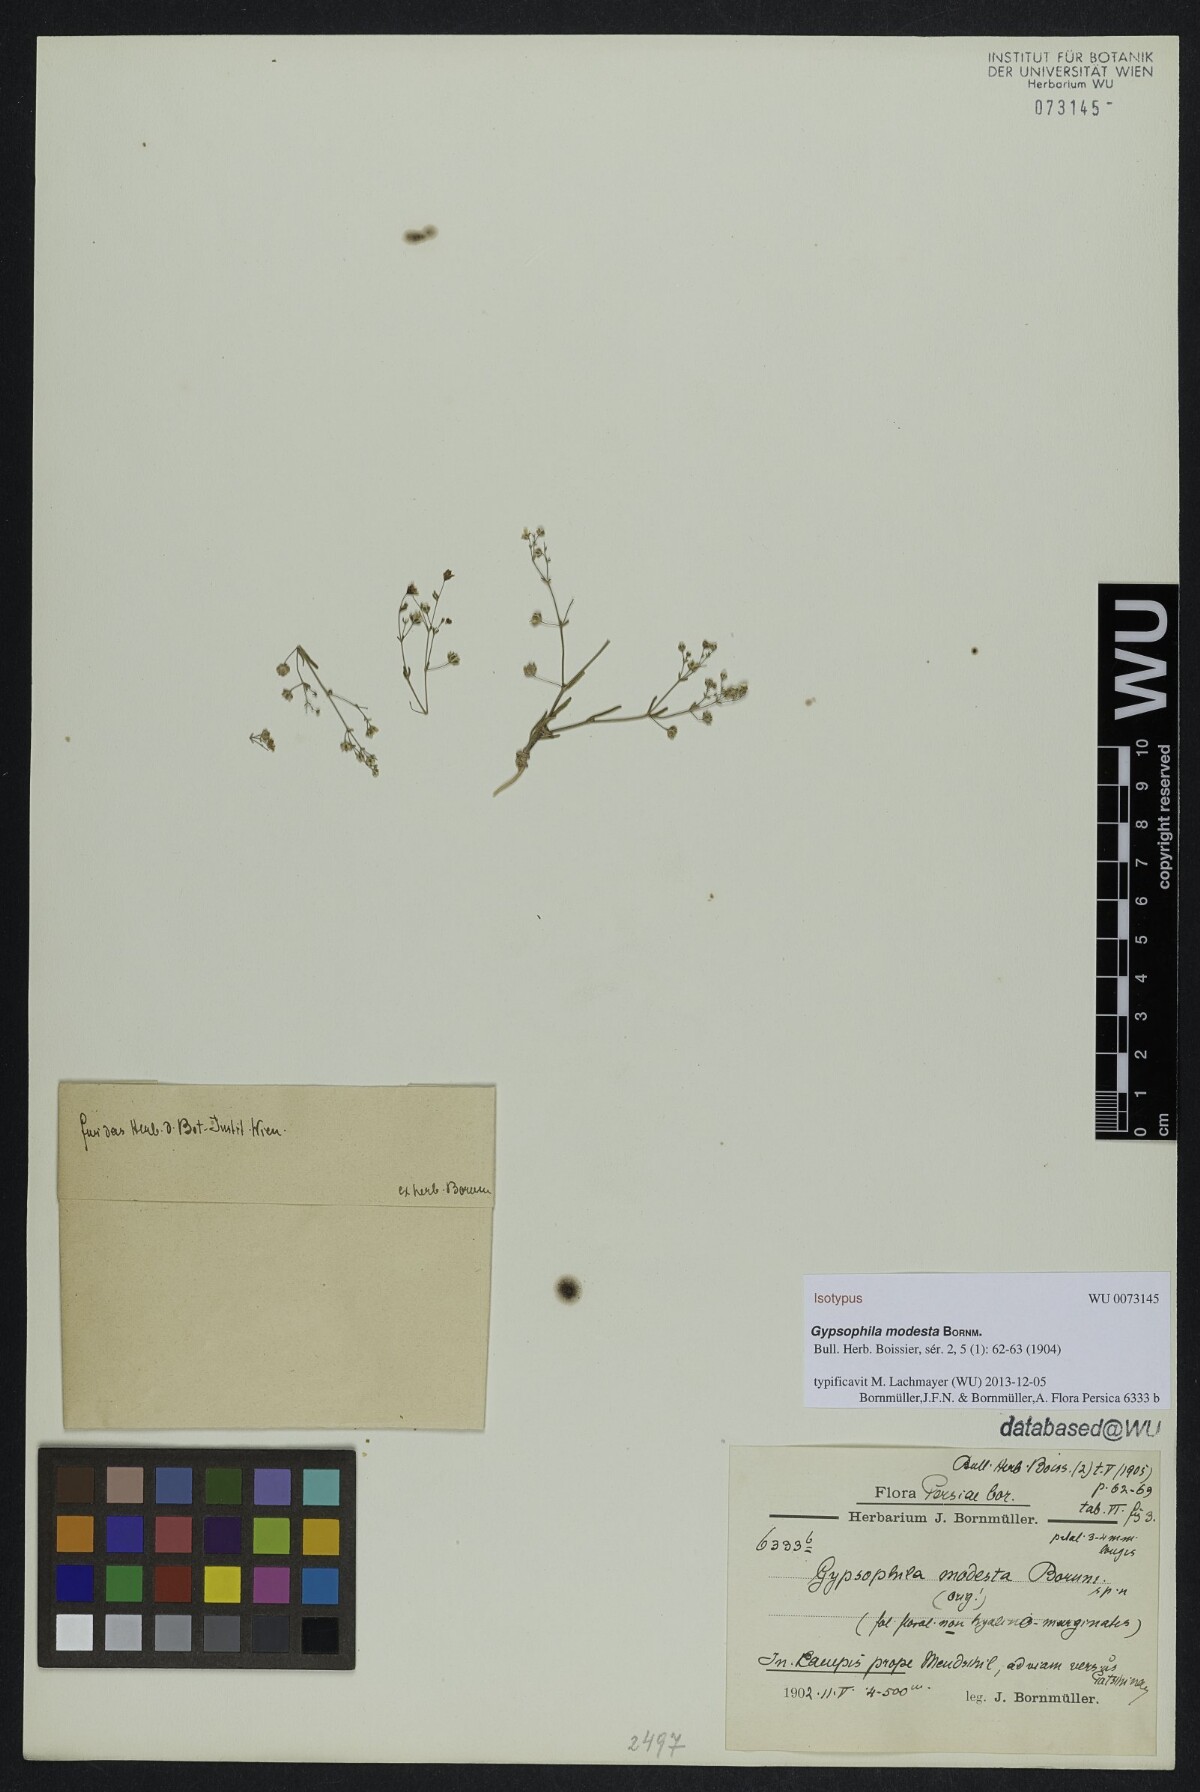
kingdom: Plantae
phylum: Tracheophyta
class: Magnoliopsida
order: Caryophyllales
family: Caryophyllaceae
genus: Gypsophila
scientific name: Gypsophila modesta
